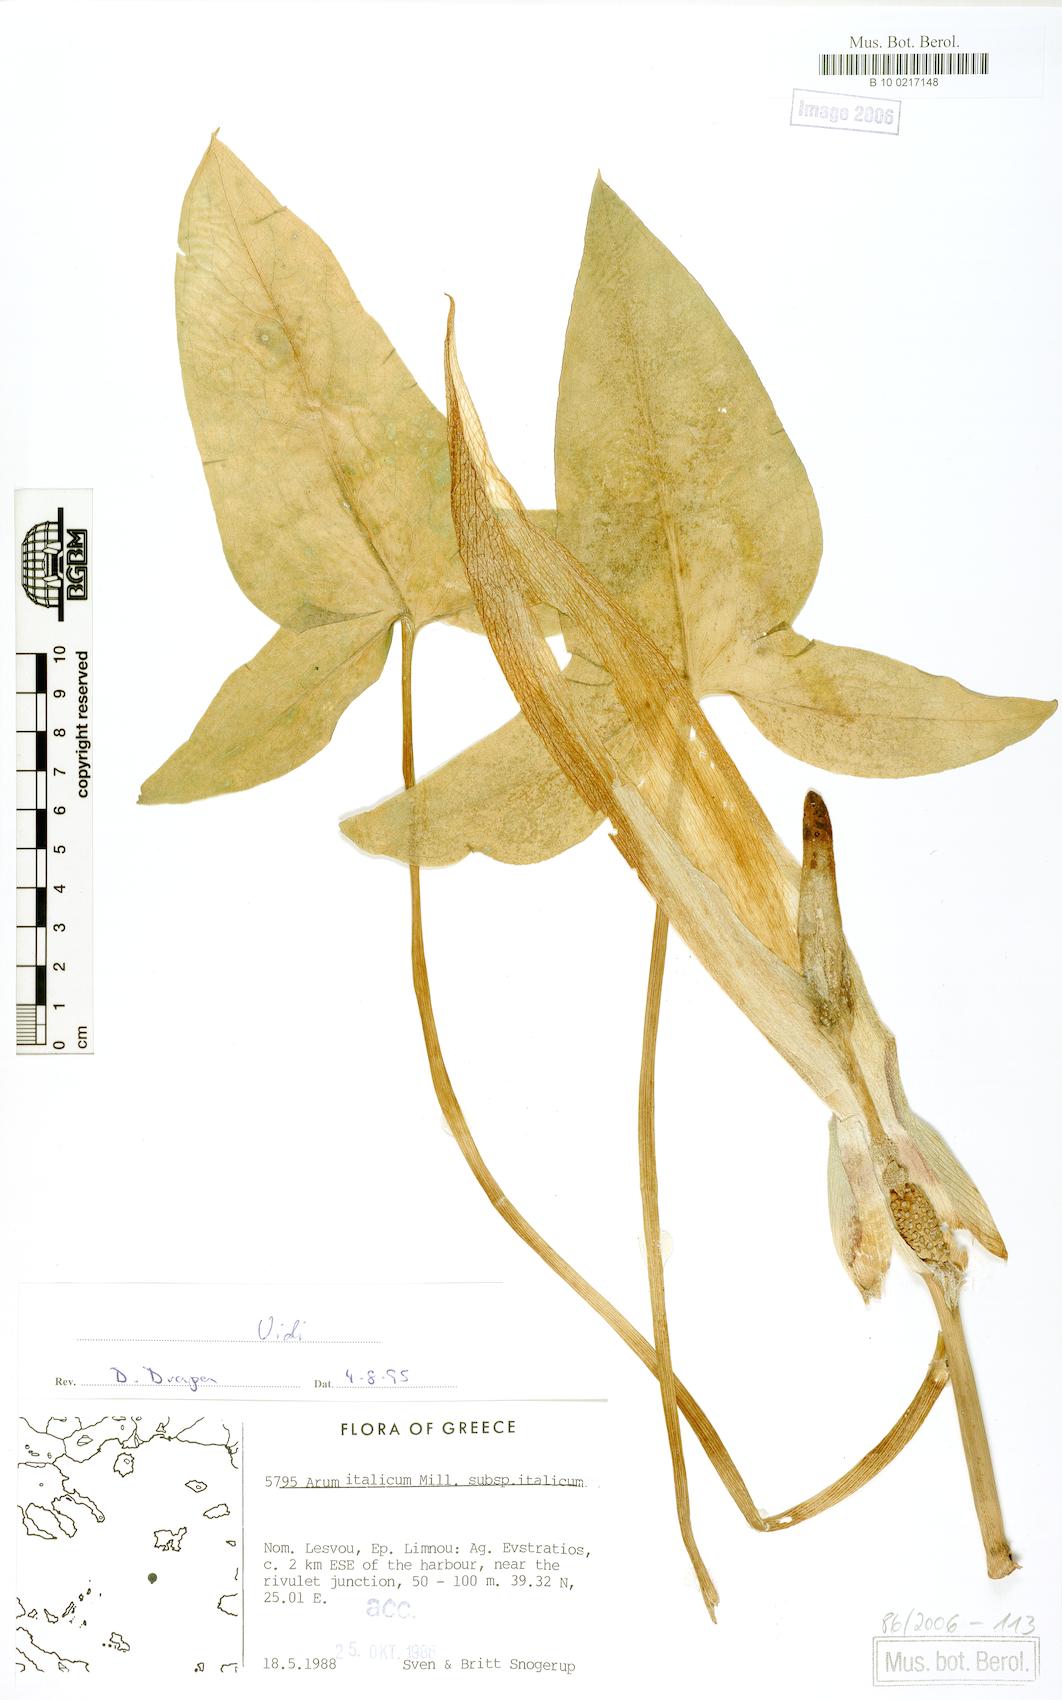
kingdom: Plantae
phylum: Tracheophyta
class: Liliopsida
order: Alismatales
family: Araceae
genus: Arum
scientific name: Arum italicum
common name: Italian lords-and-ladies
